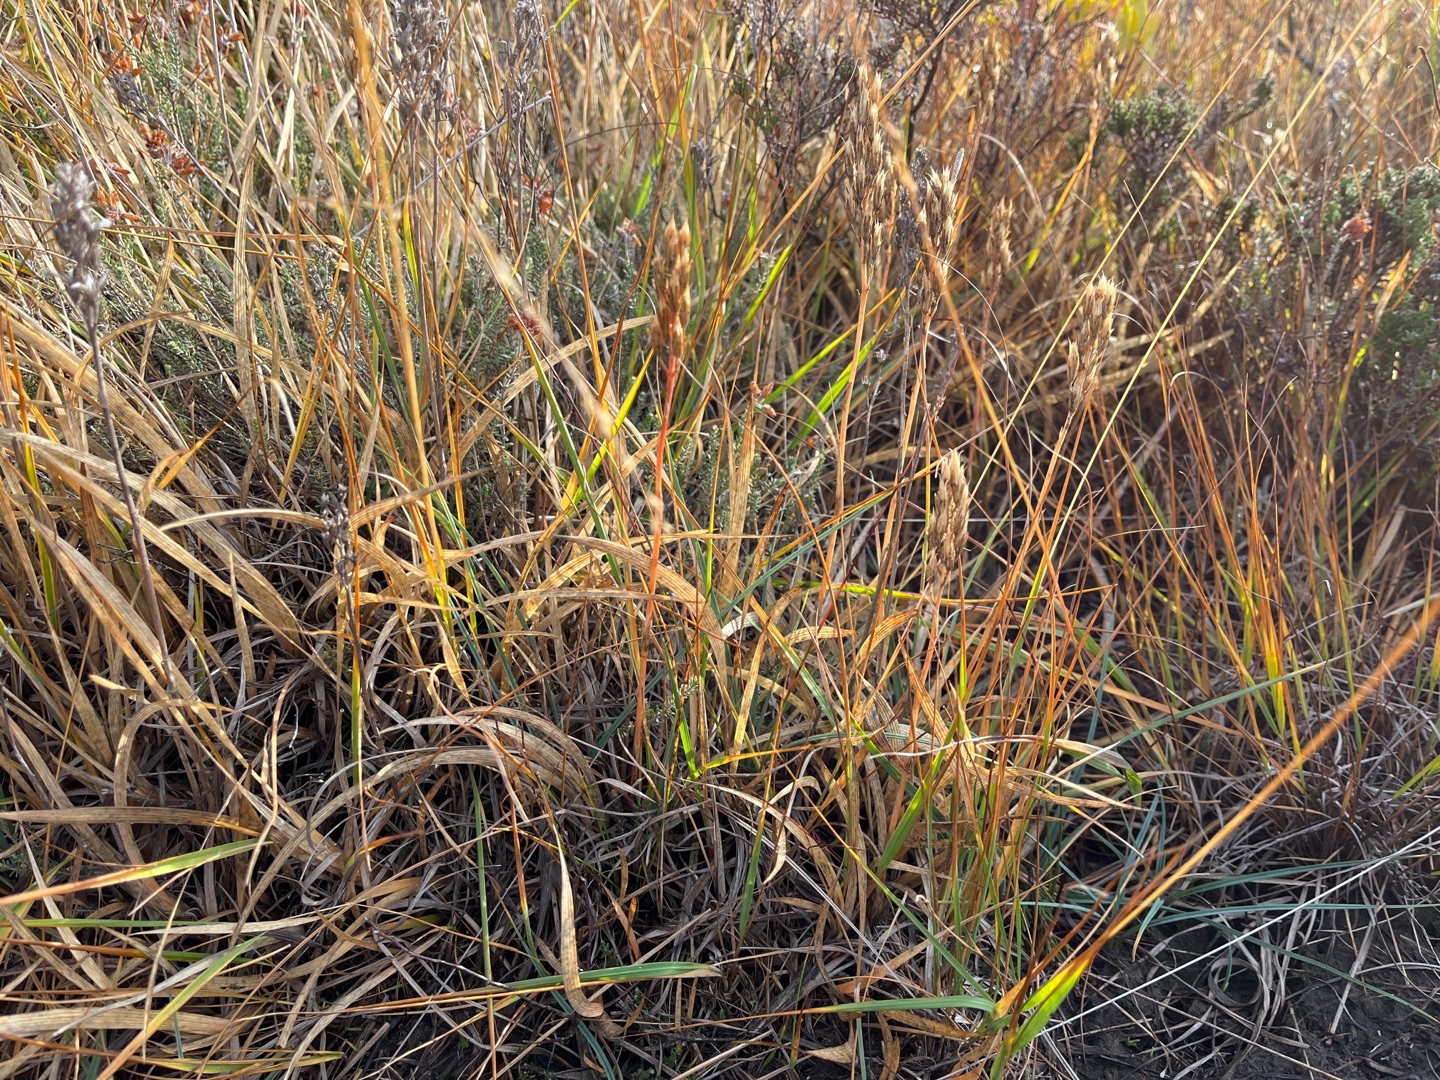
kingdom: Plantae
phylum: Tracheophyta
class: Liliopsida
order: Dioscoreales
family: Nartheciaceae
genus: Narthecium
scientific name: Narthecium ossifragum
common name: Benbræk
